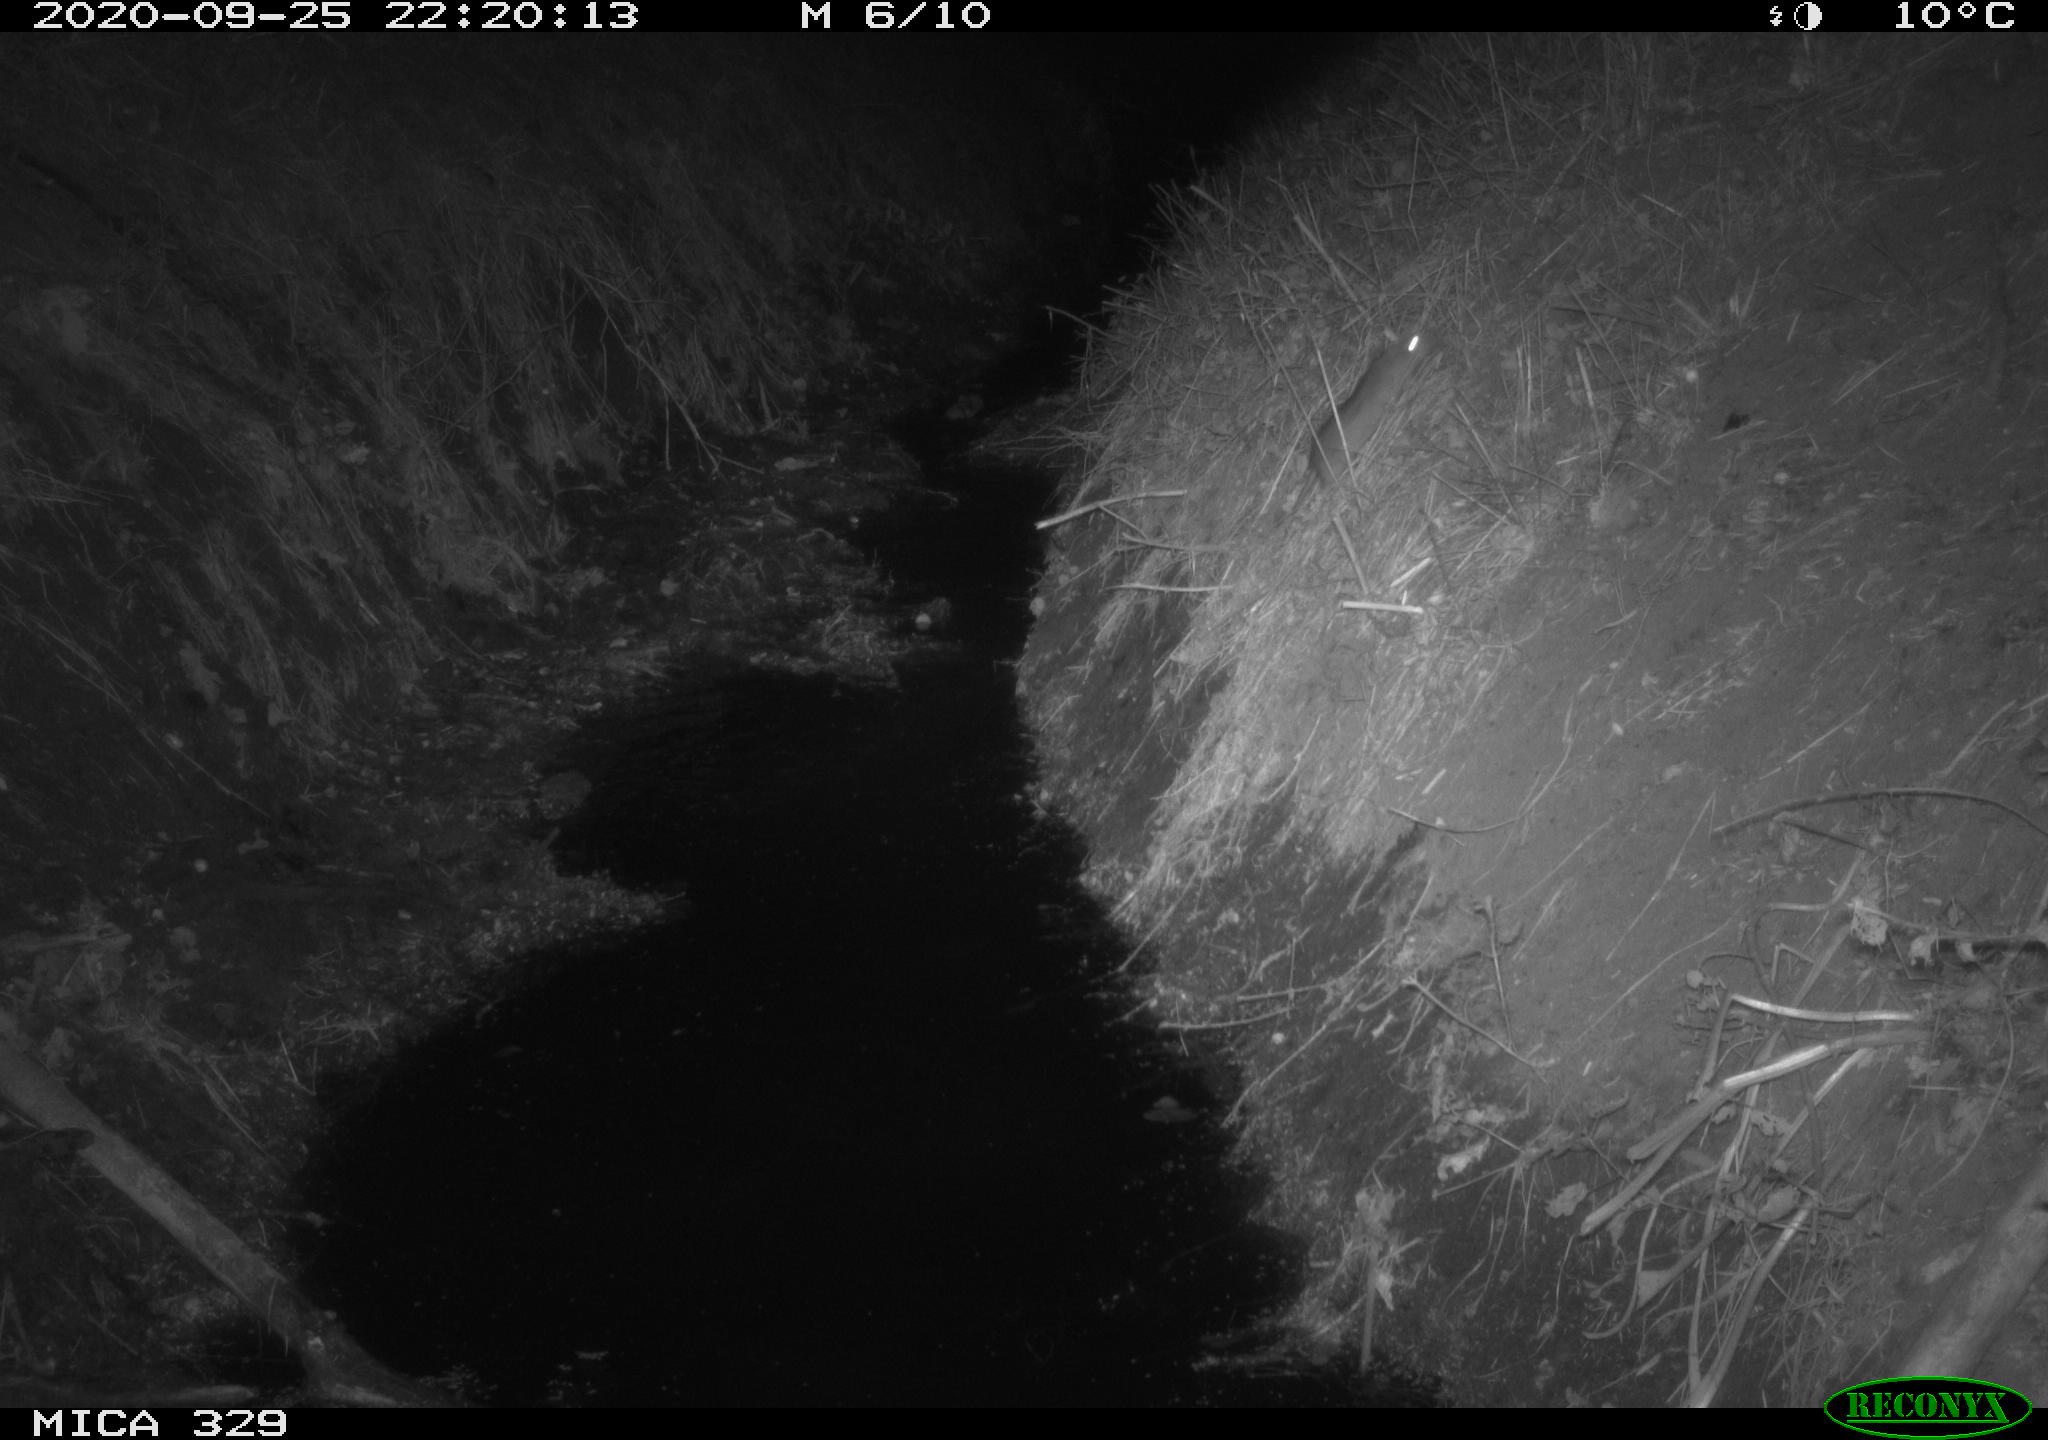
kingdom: Animalia
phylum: Chordata
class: Mammalia
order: Rodentia
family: Cricetidae
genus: Ondatra
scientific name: Ondatra zibethicus
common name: Muskrat
